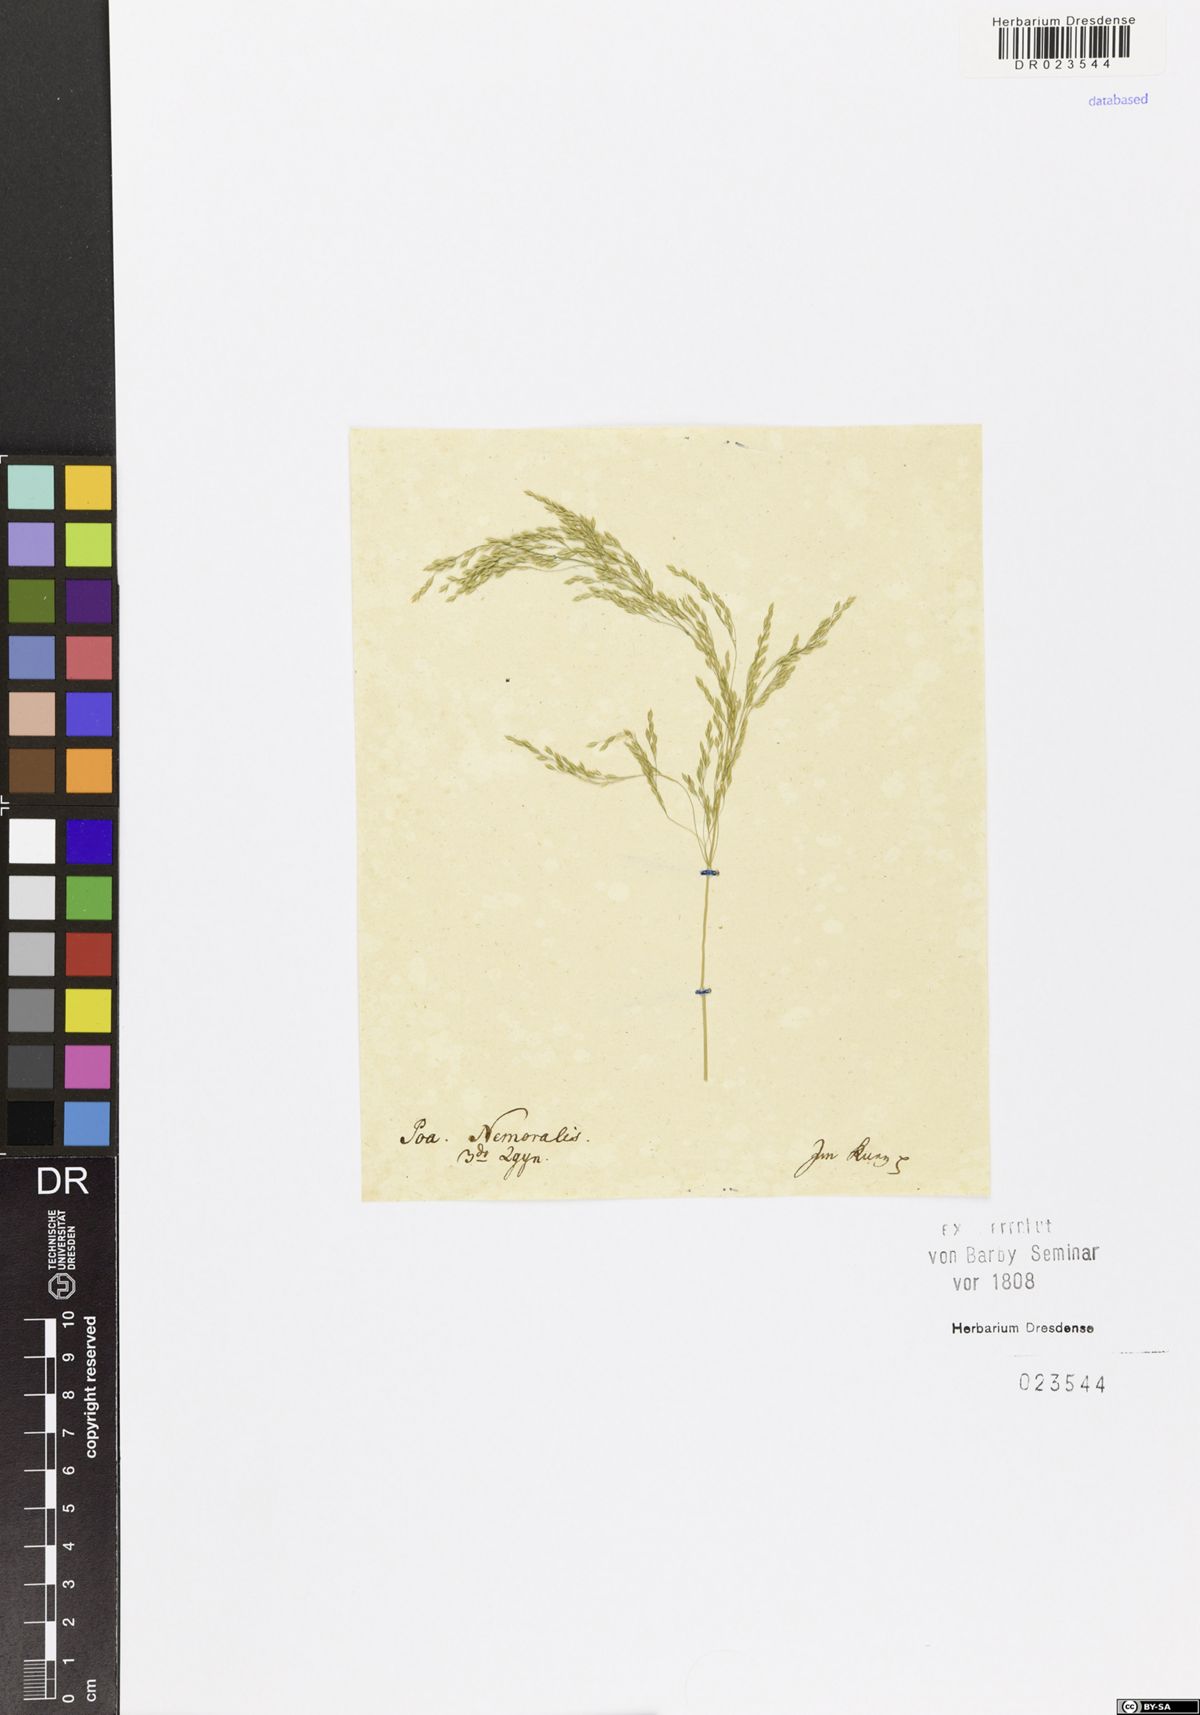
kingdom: Plantae
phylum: Tracheophyta
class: Liliopsida
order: Poales
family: Poaceae
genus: Poa
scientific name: Poa nemoralis
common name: Wood bluegrass
